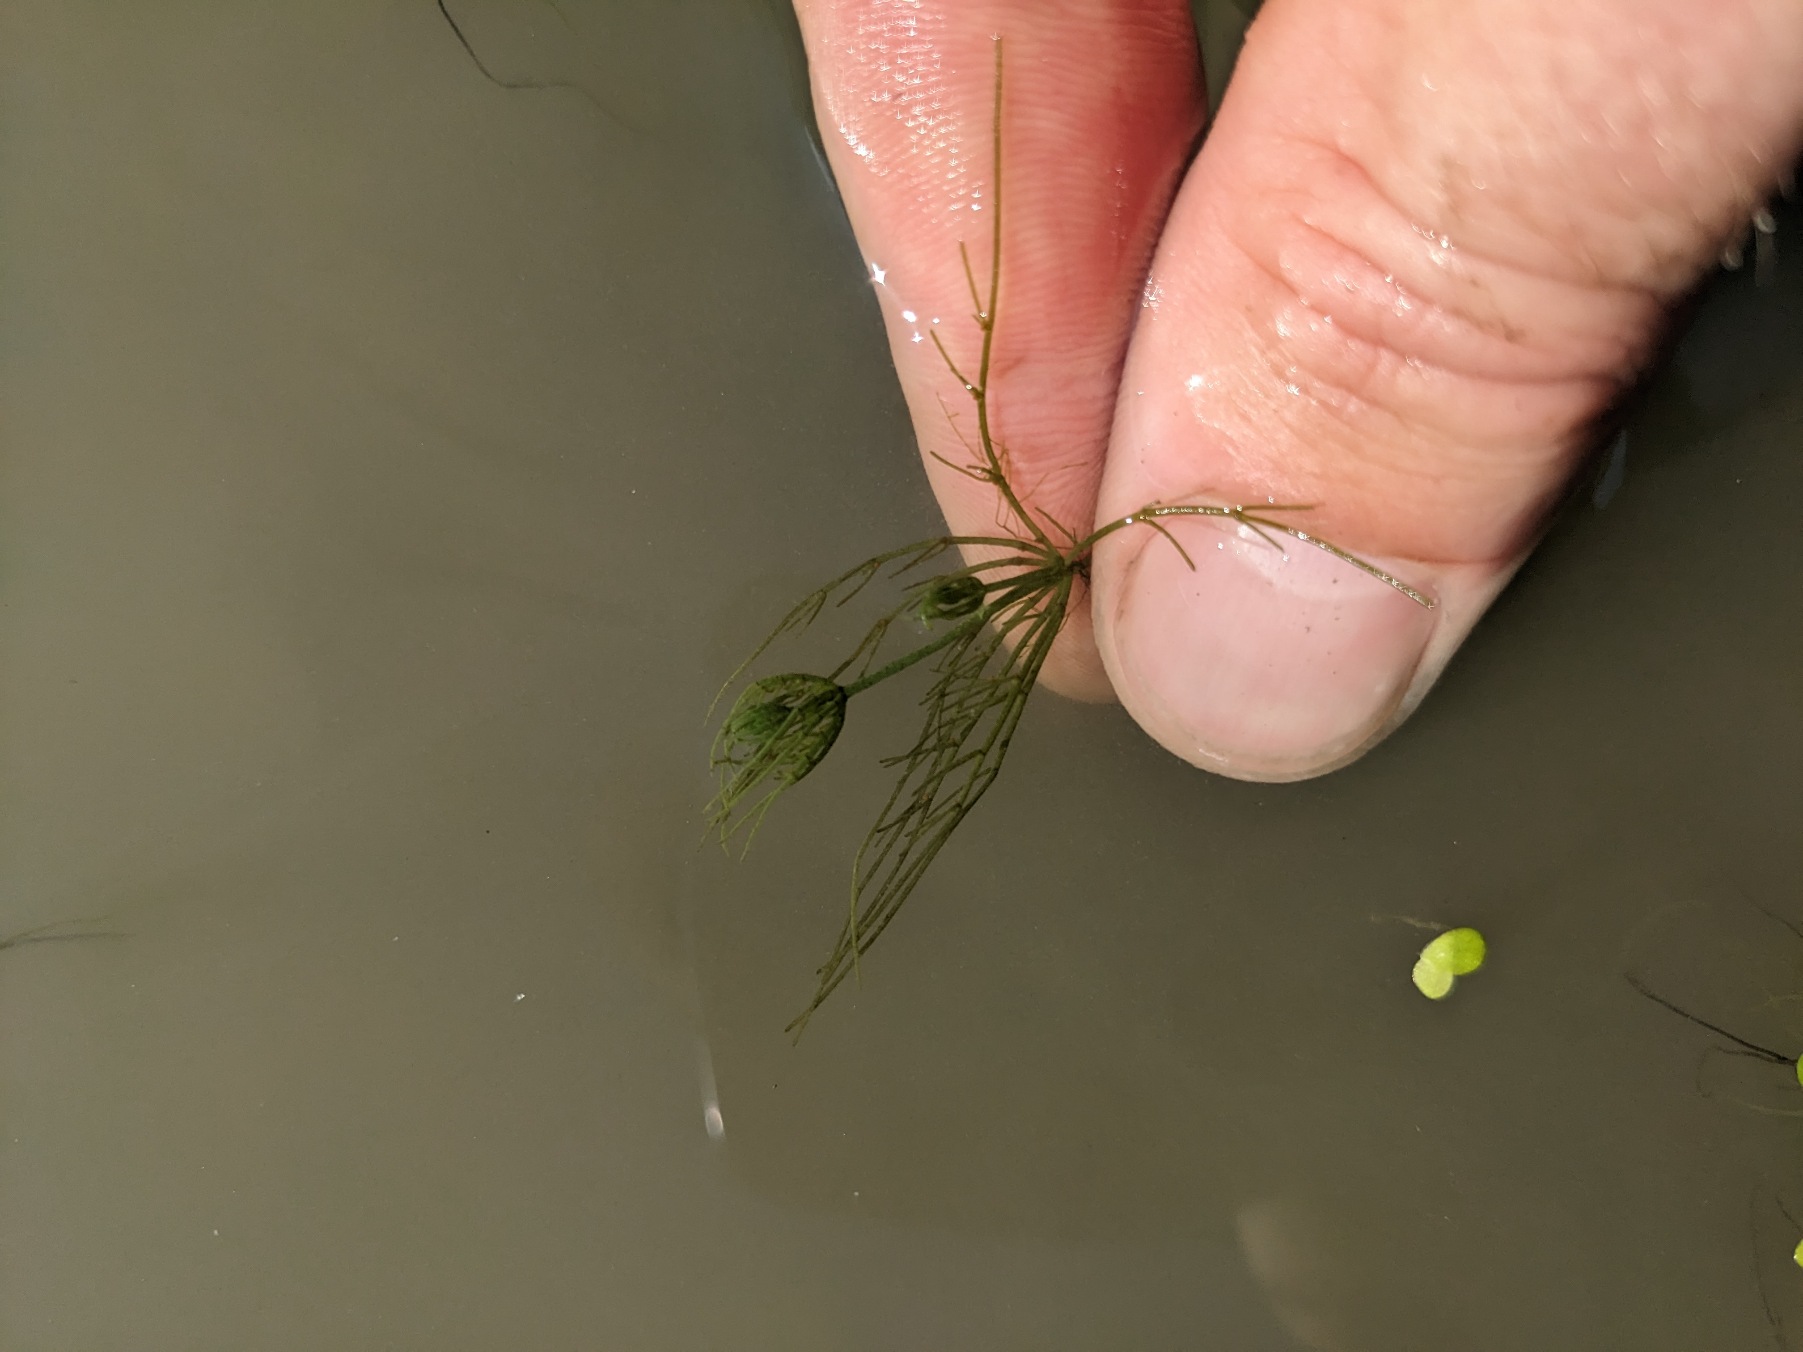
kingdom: Plantae
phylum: Charophyta
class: Charophyceae
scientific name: Charophyceae
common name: Kransnålalger
